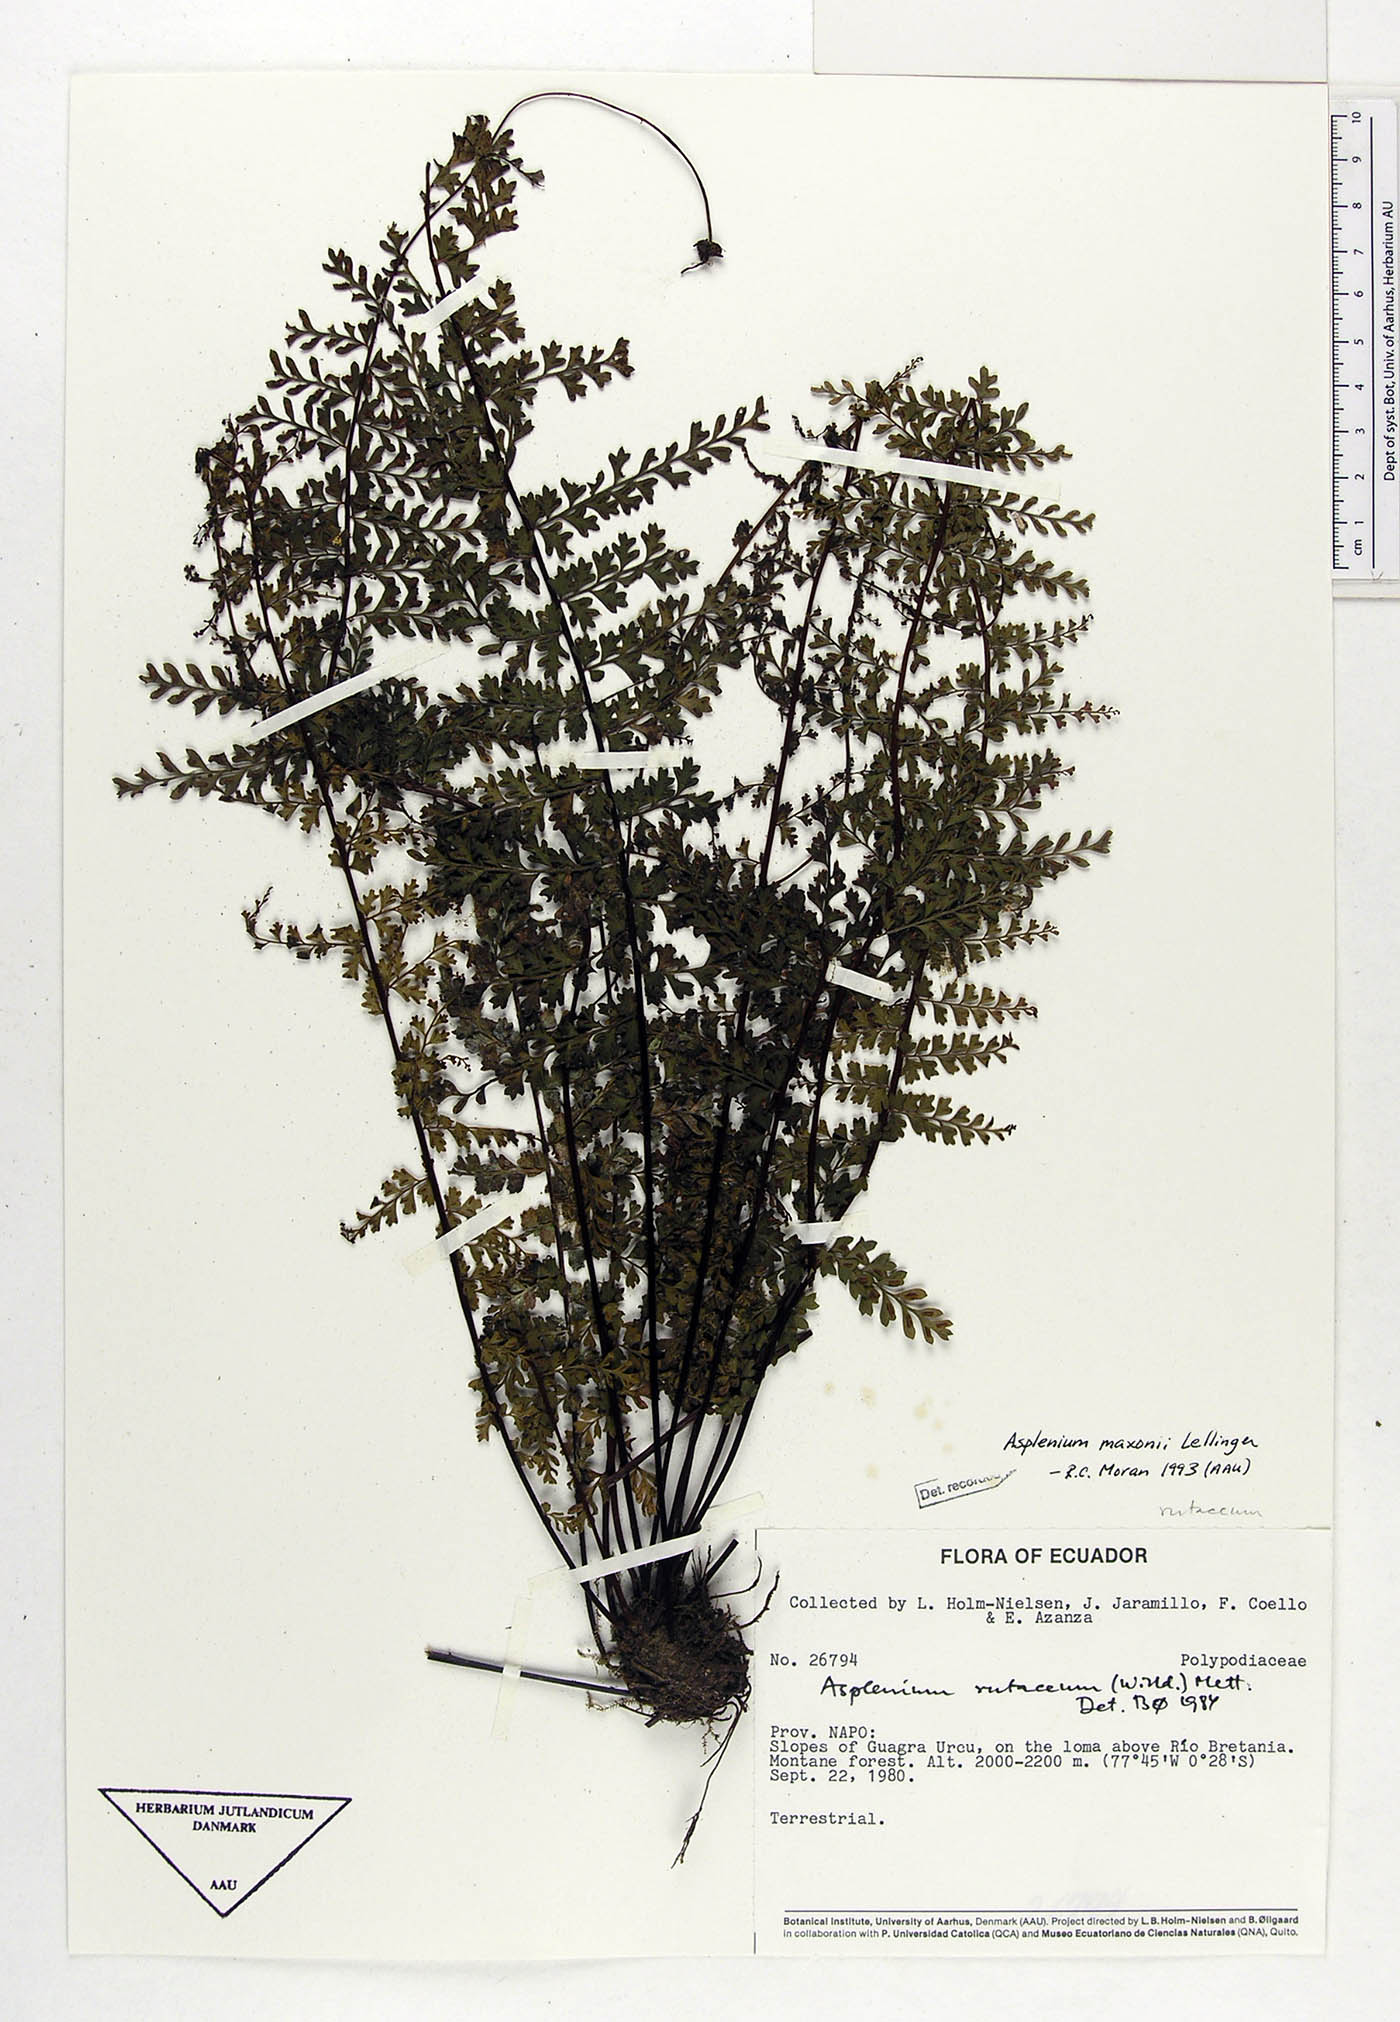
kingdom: Plantae
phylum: Tracheophyta
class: Polypodiopsida
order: Polypodiales
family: Aspleniaceae
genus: Asplenium
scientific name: Asplenium maxonii
